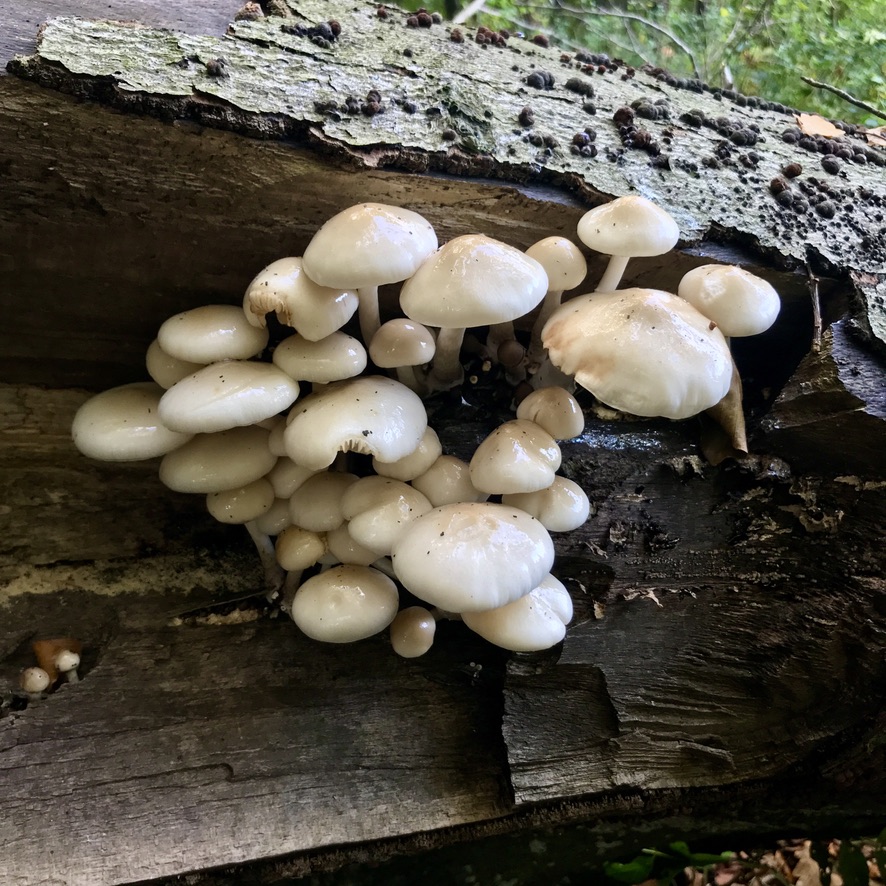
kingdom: Fungi
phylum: Basidiomycota
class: Agaricomycetes
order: Agaricales
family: Physalacriaceae
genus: Mucidula
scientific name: Mucidula mucida
